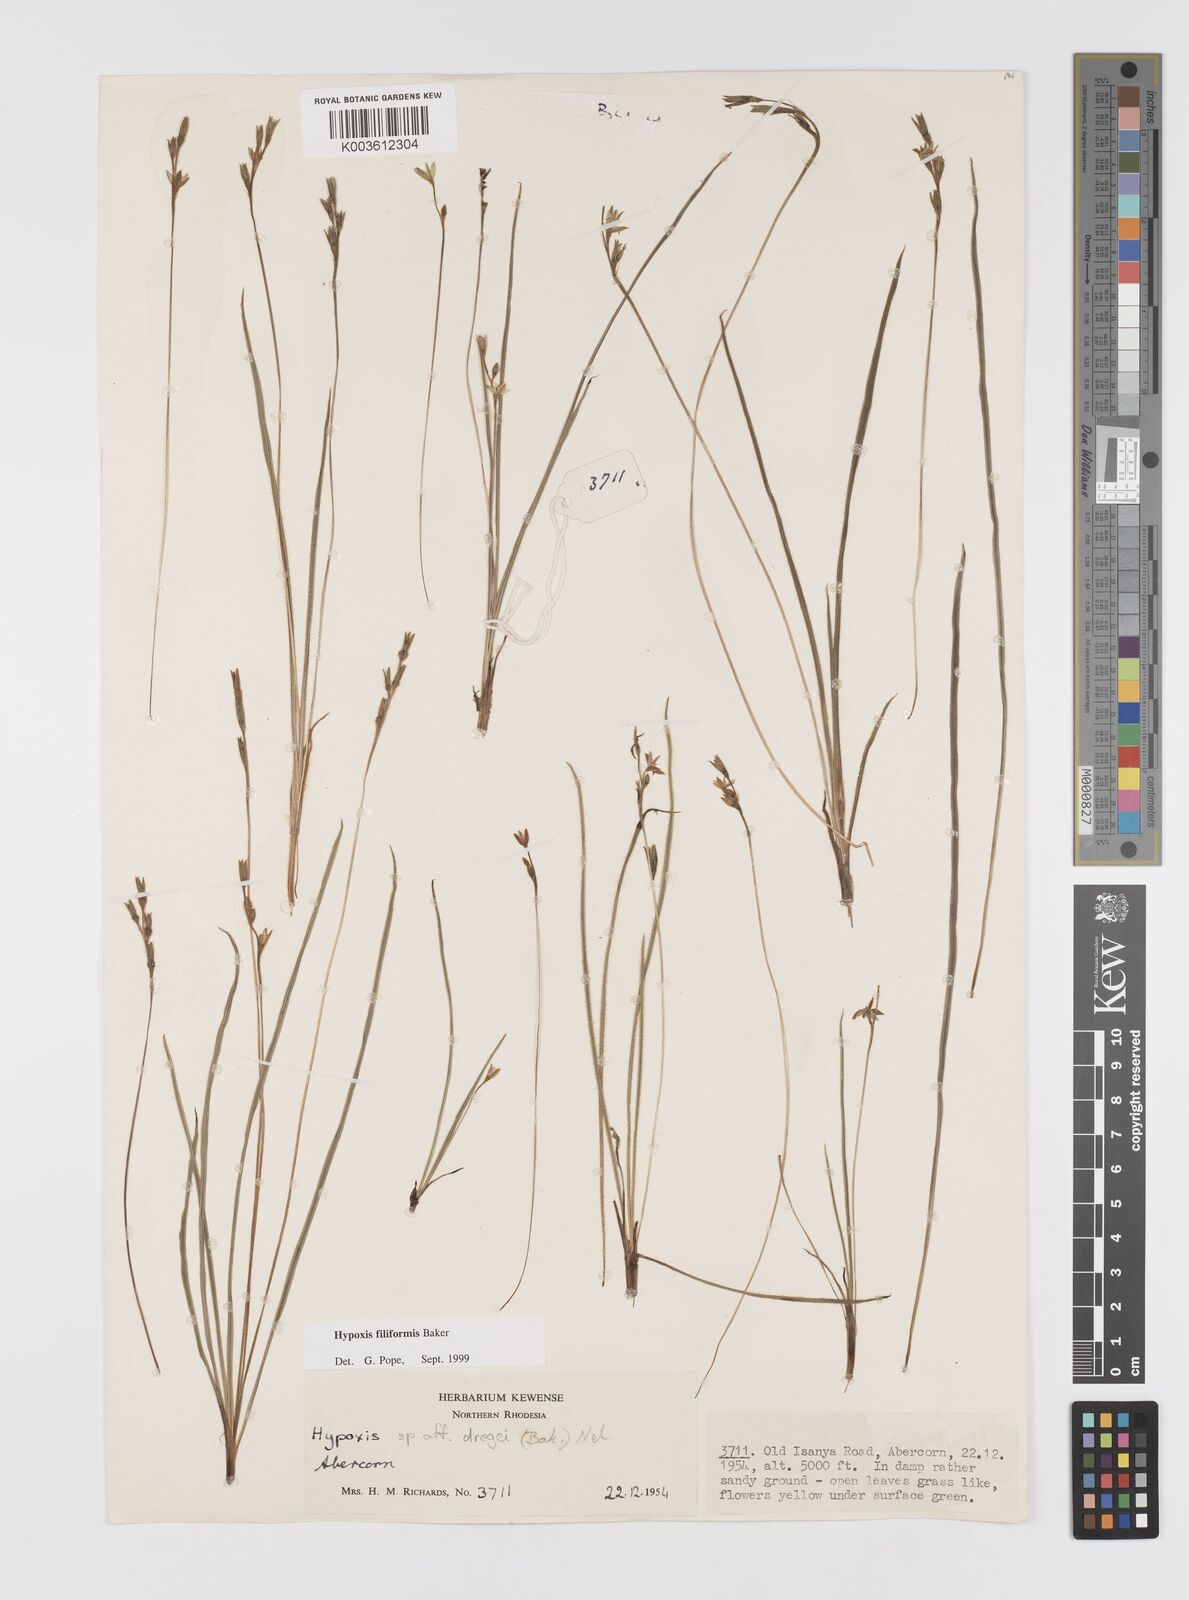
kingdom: Plantae
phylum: Tracheophyta
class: Liliopsida
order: Asparagales
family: Hypoxidaceae
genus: Hypoxis
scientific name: Hypoxis filiformis
